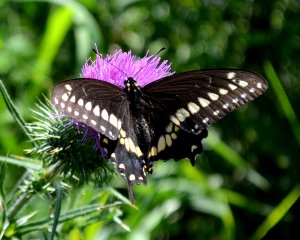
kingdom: Animalia
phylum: Arthropoda
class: Insecta
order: Lepidoptera
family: Papilionidae
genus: Papilio
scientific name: Papilio polyxenes
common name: Black Swallowtail
